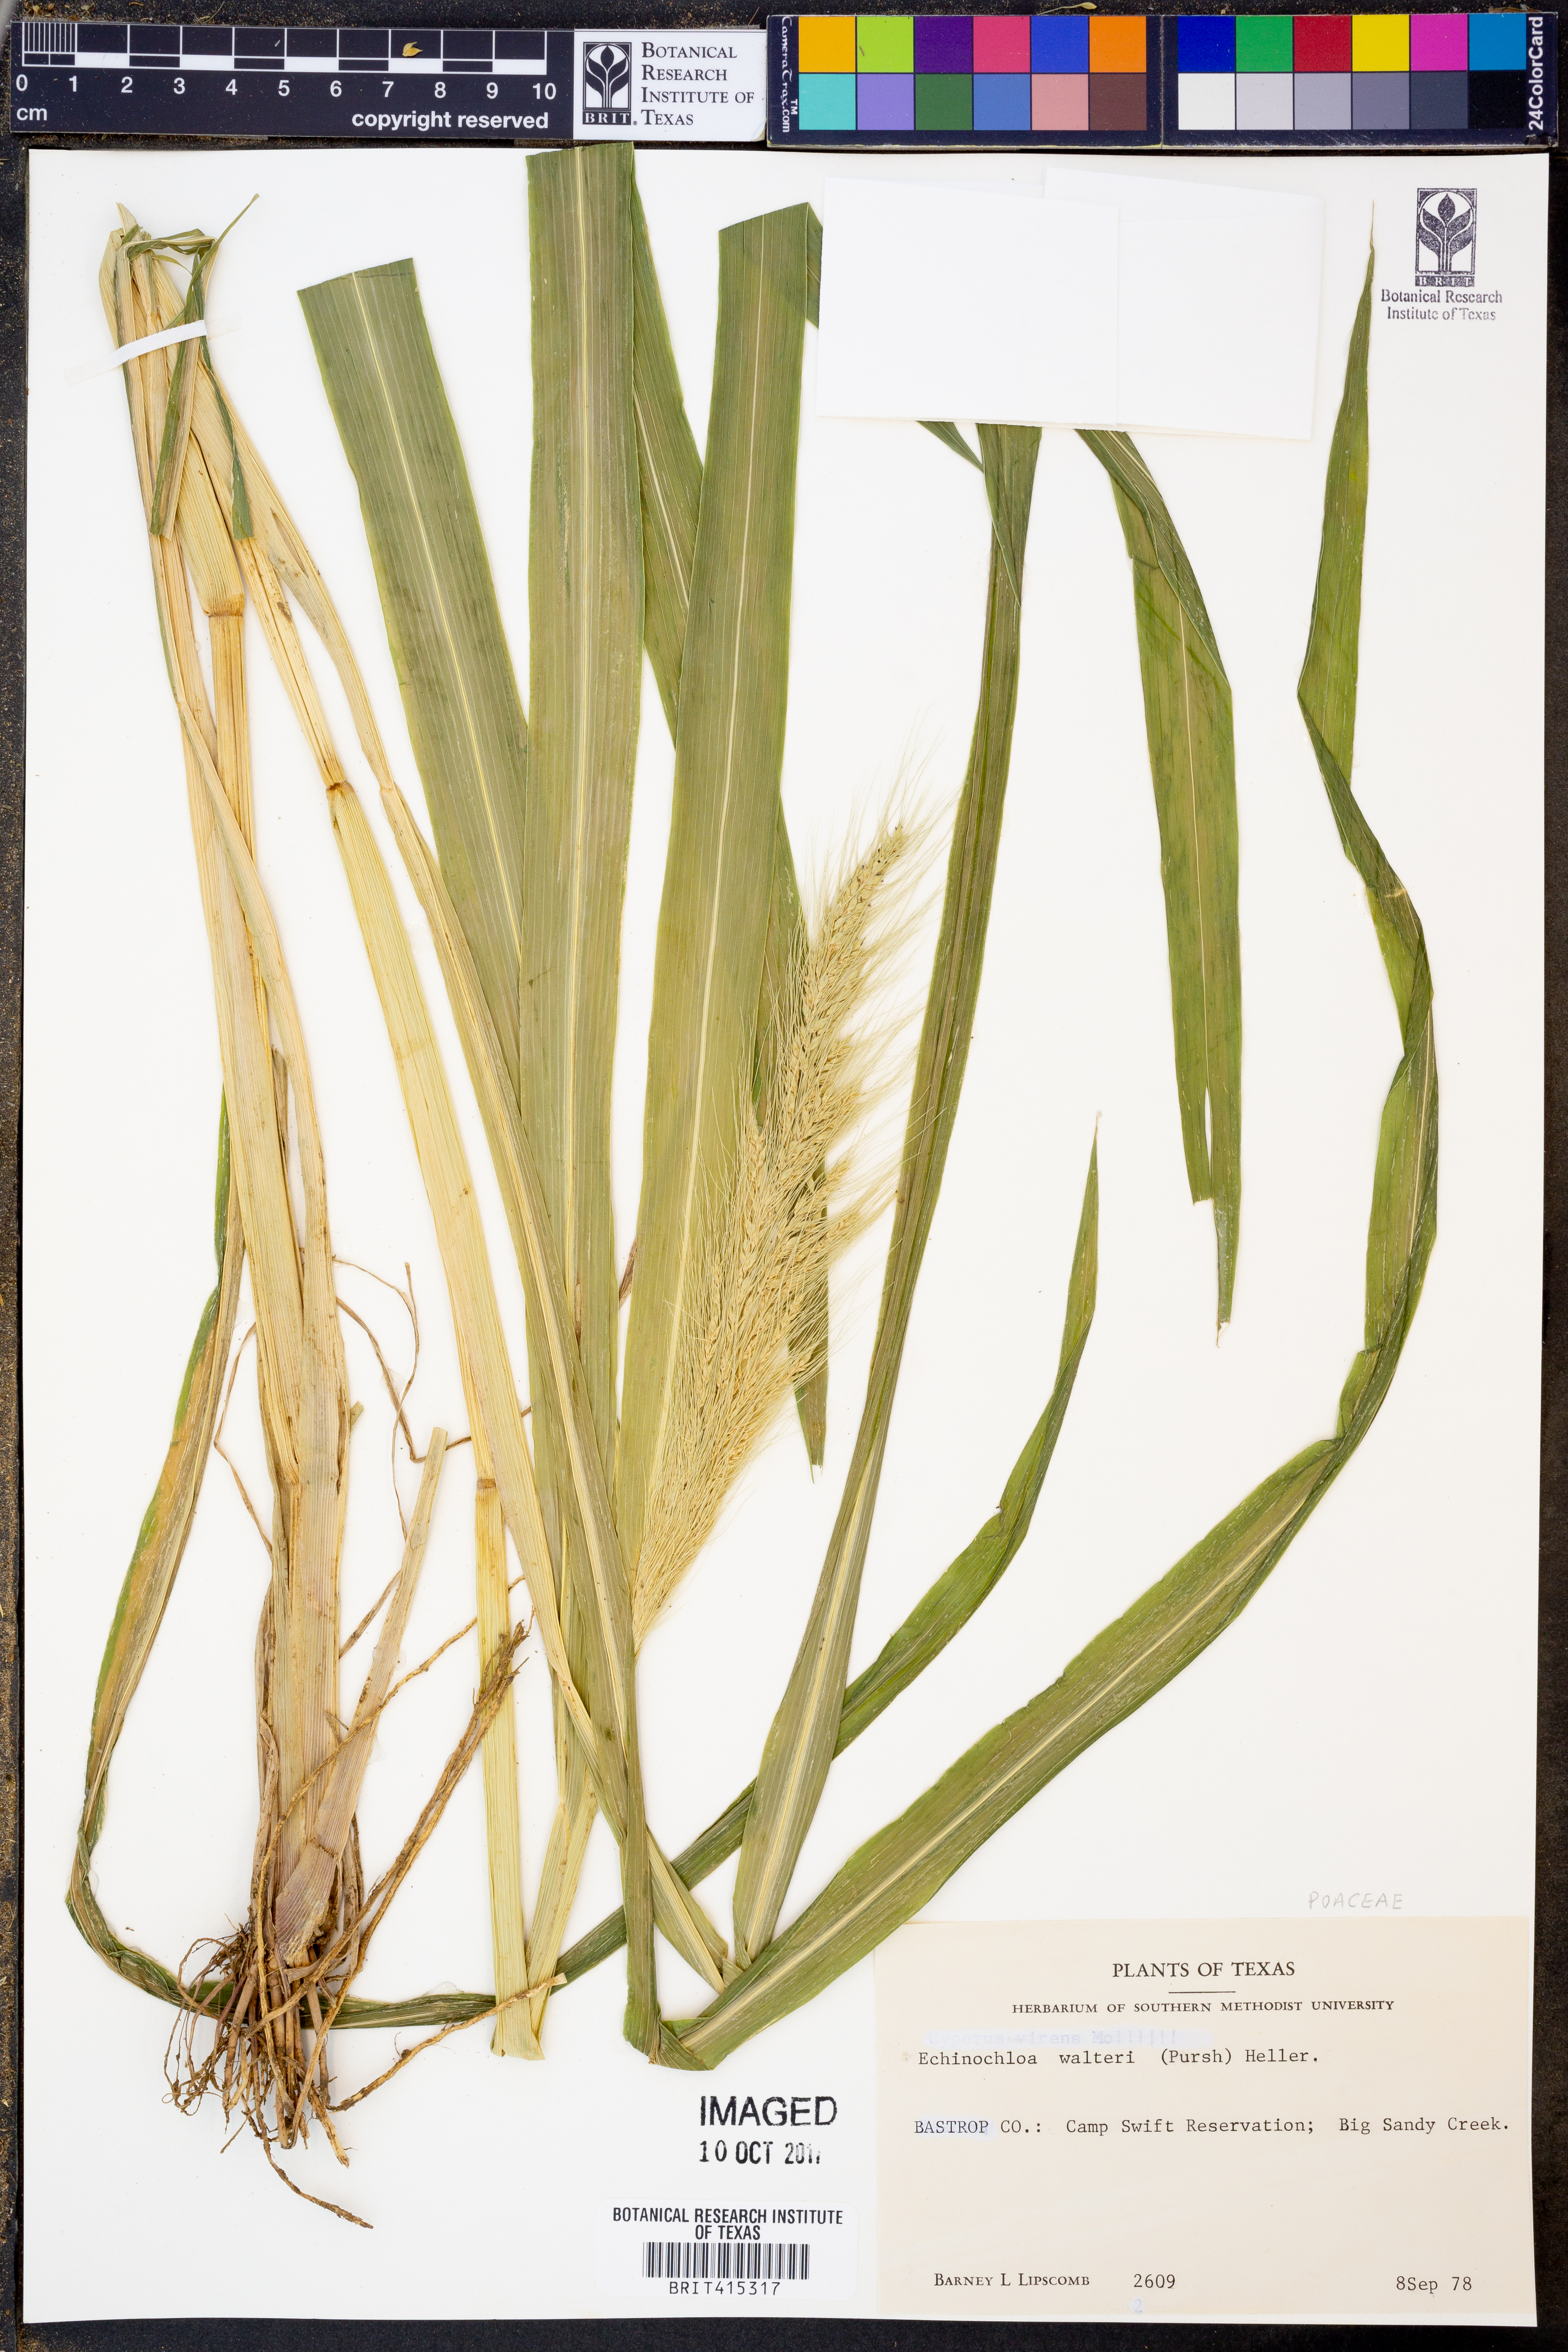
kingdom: Plantae
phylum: Tracheophyta
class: Liliopsida
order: Poales
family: Poaceae
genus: Echinochloa
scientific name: Echinochloa walteri
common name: Coast barnyard grass
